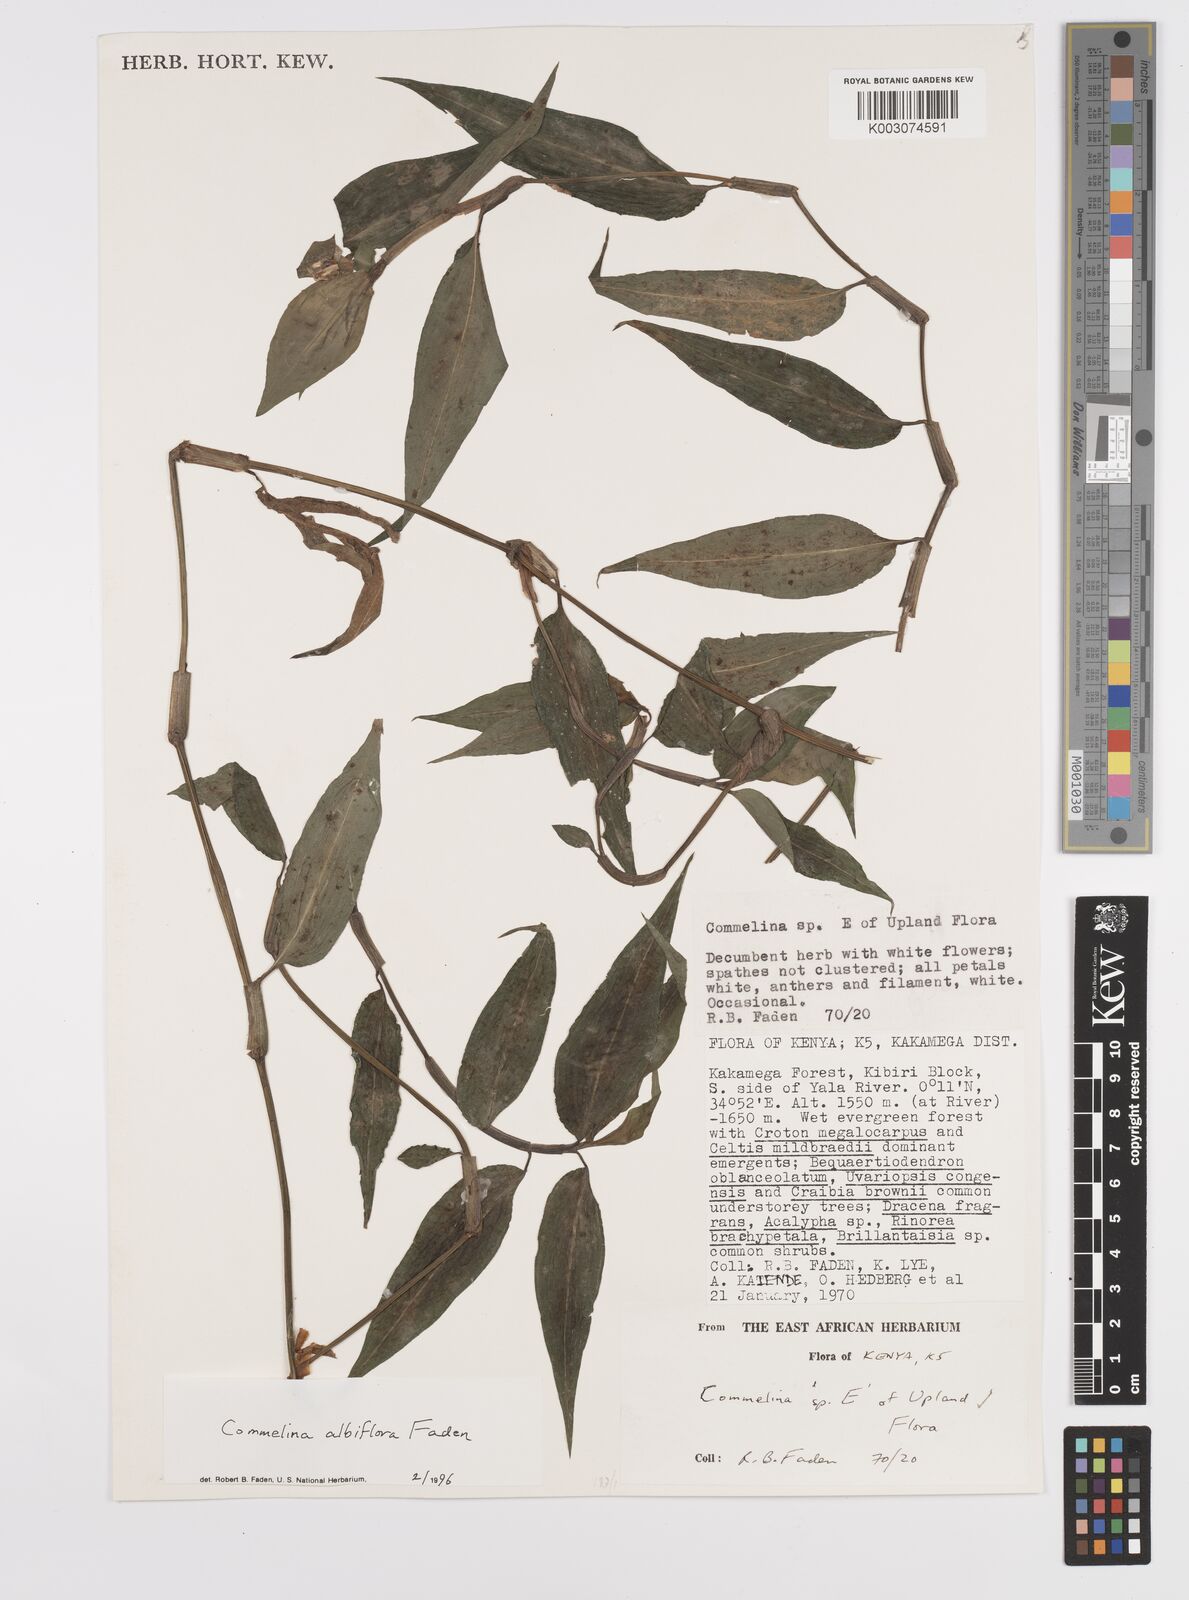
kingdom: Plantae
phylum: Tracheophyta
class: Liliopsida
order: Commelinales
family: Commelinaceae
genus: Commelina
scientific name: Commelina albiflora
